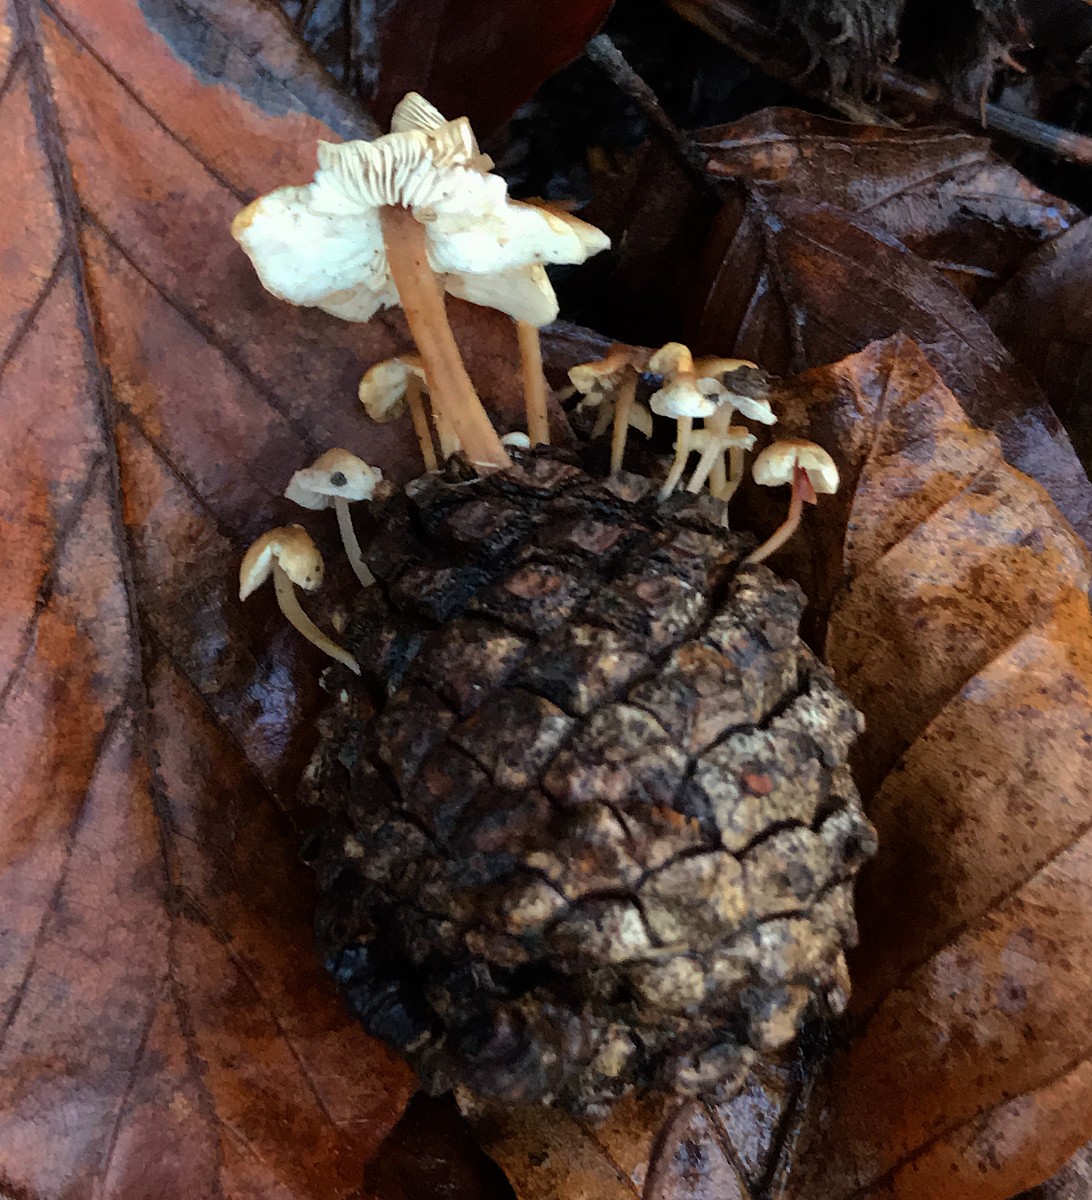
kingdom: Fungi
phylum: Basidiomycota
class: Agaricomycetes
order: Agaricales
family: Marasmiaceae
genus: Baeospora
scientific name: Baeospora myosura
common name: koglebruskhat
